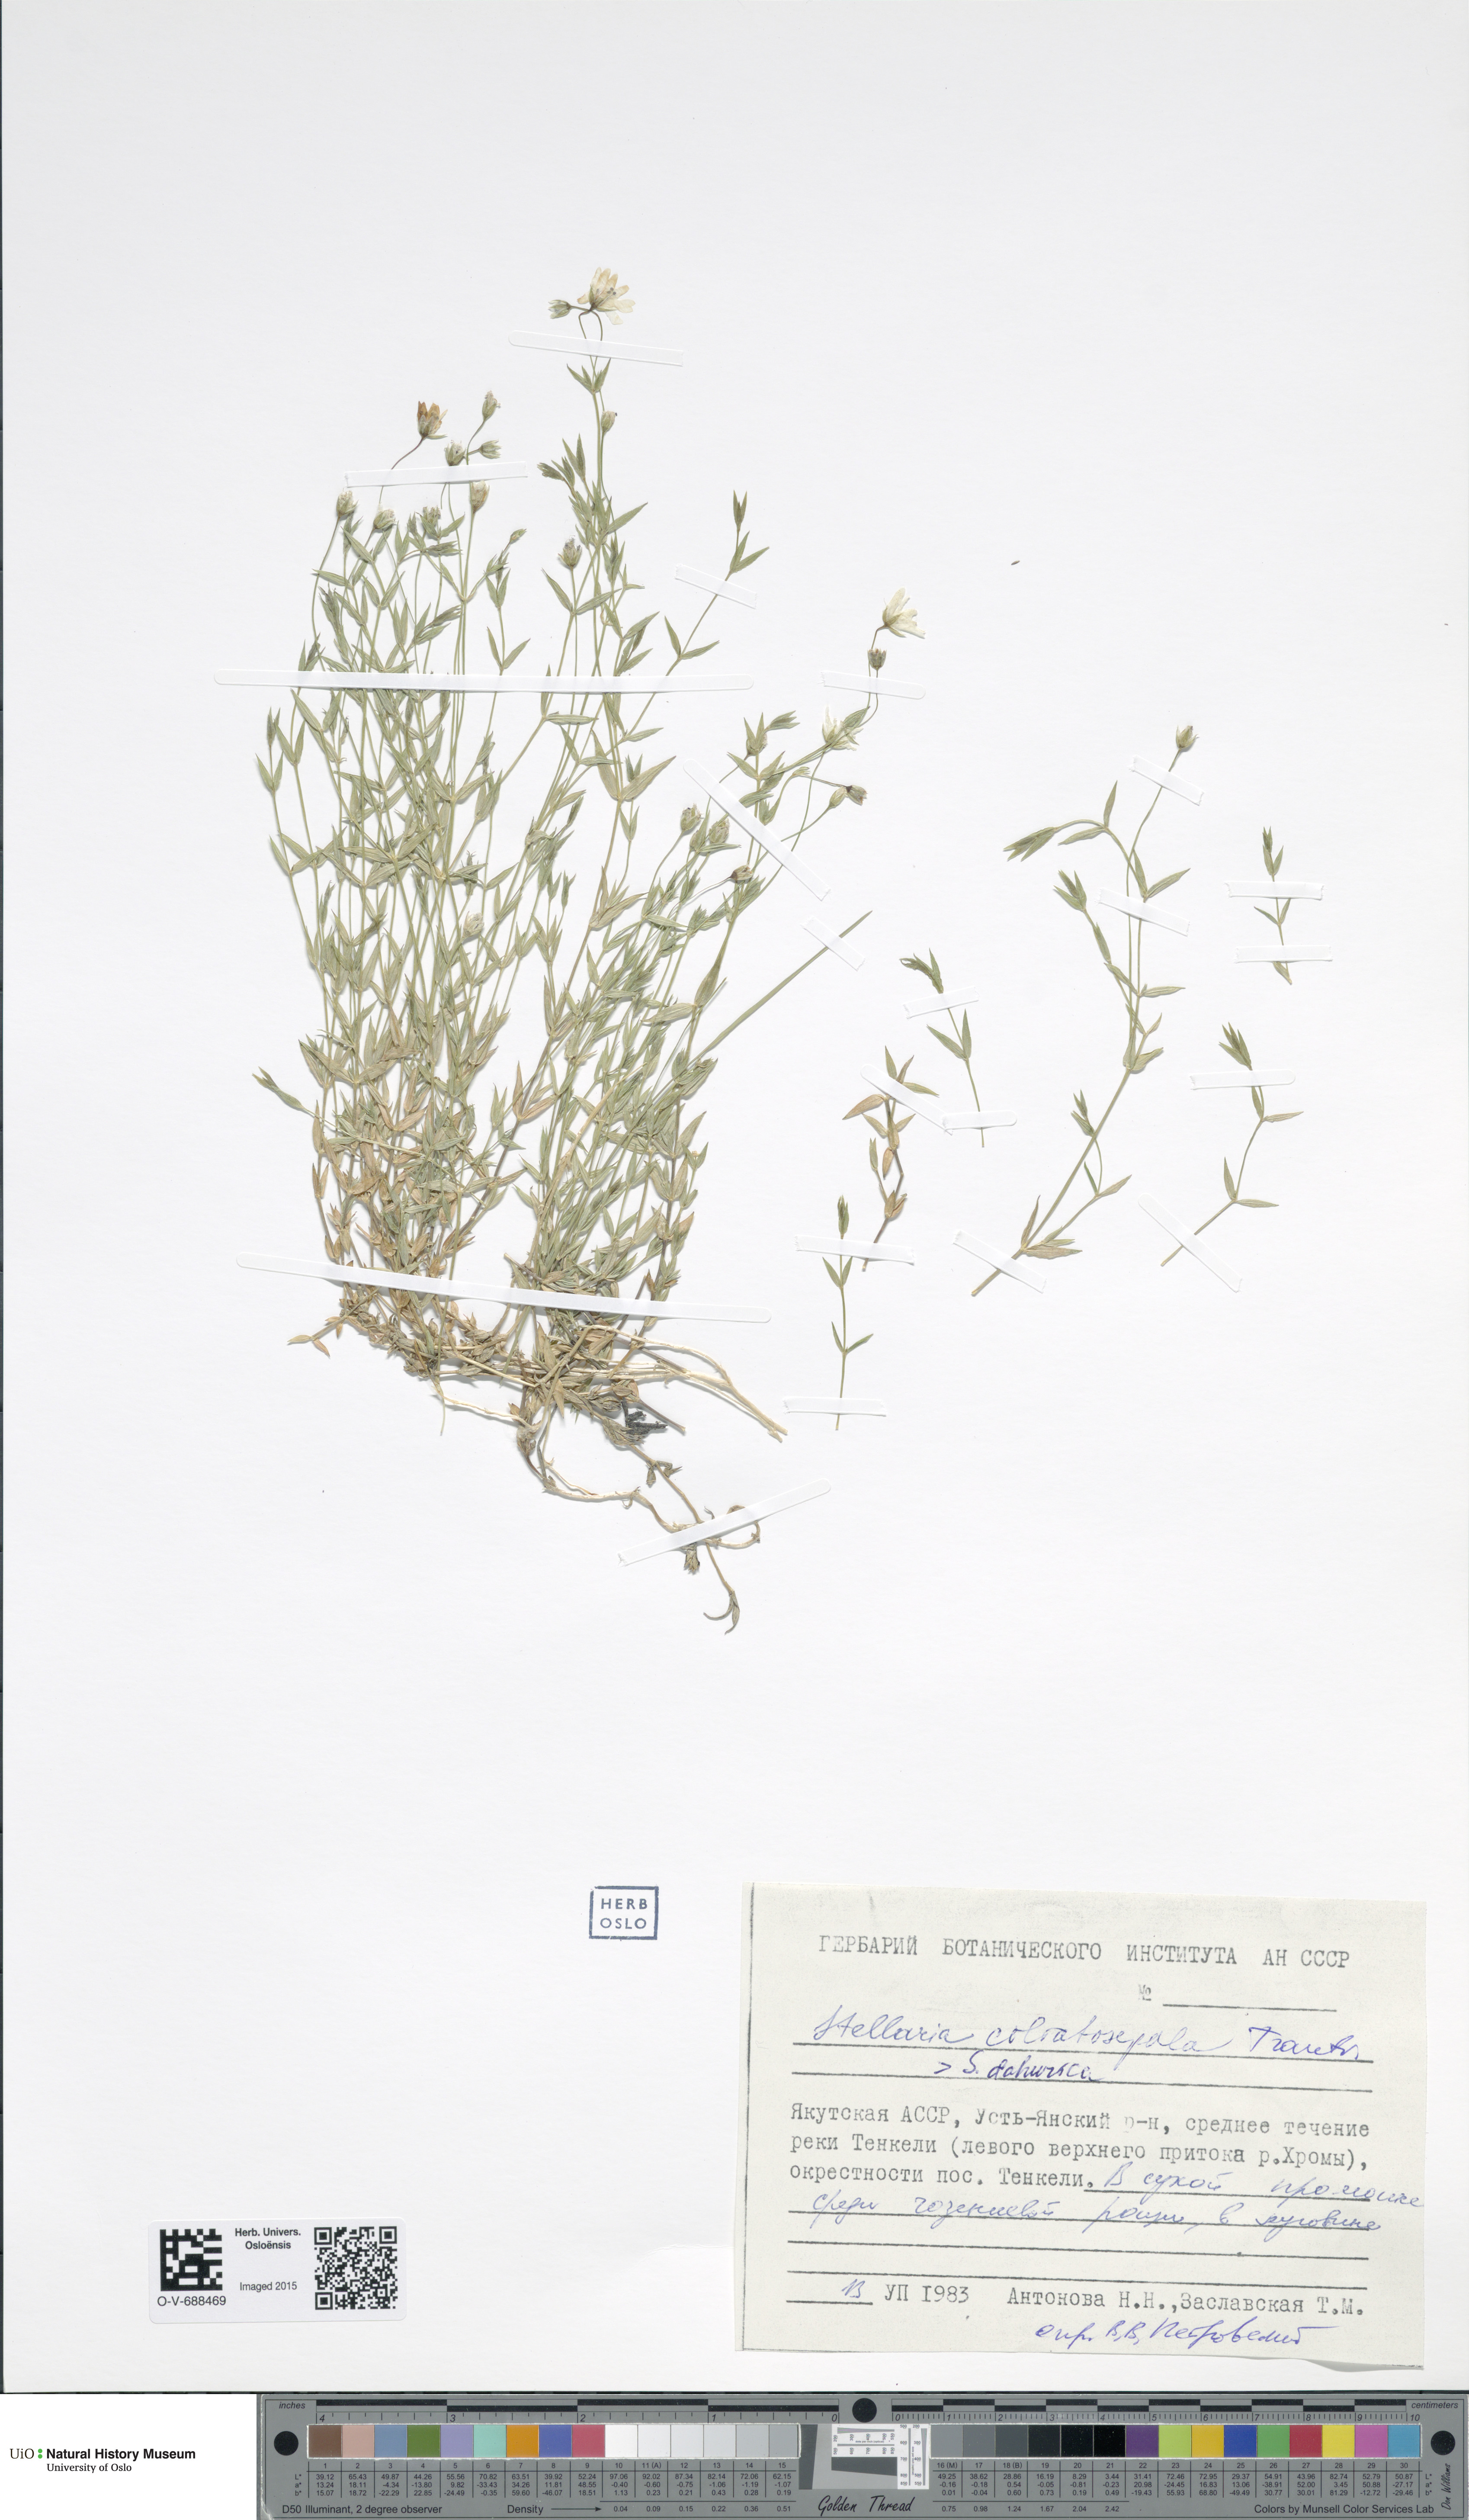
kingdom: Plantae
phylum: Tracheophyta
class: Magnoliopsida
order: Caryophyllales
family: Caryophyllaceae
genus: Stellaria
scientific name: Stellaria longipes
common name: Goldie's starwort
